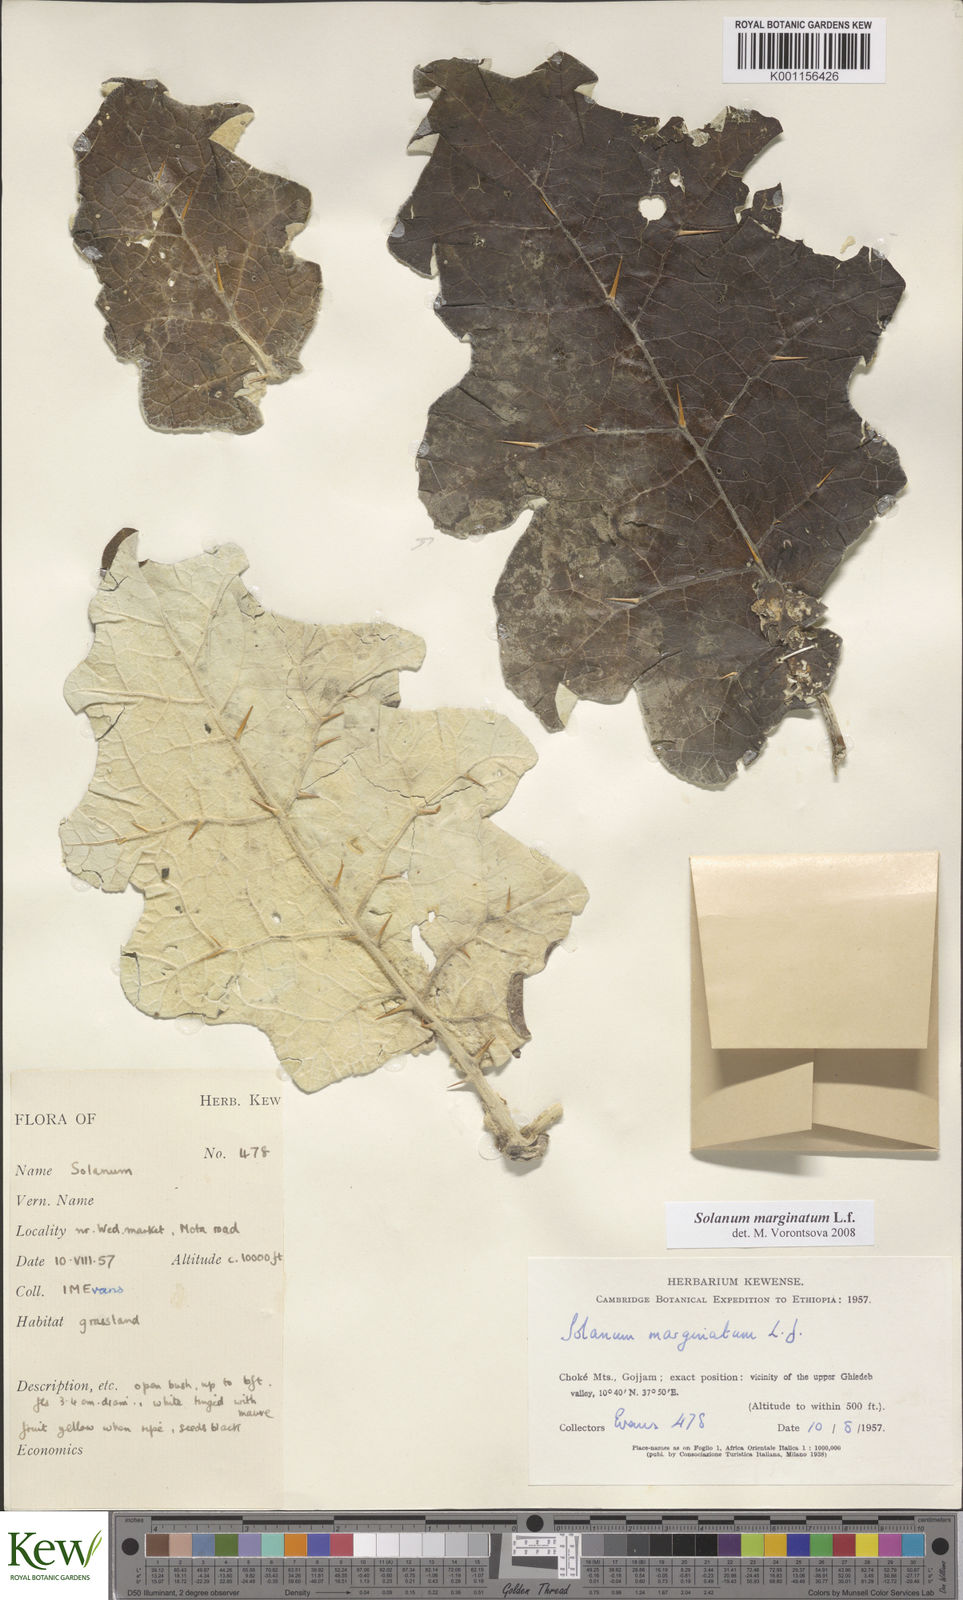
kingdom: Plantae
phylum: Tracheophyta
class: Magnoliopsida
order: Solanales
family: Solanaceae
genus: Solanum
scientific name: Solanum marginatum
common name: Purple african nightshade
